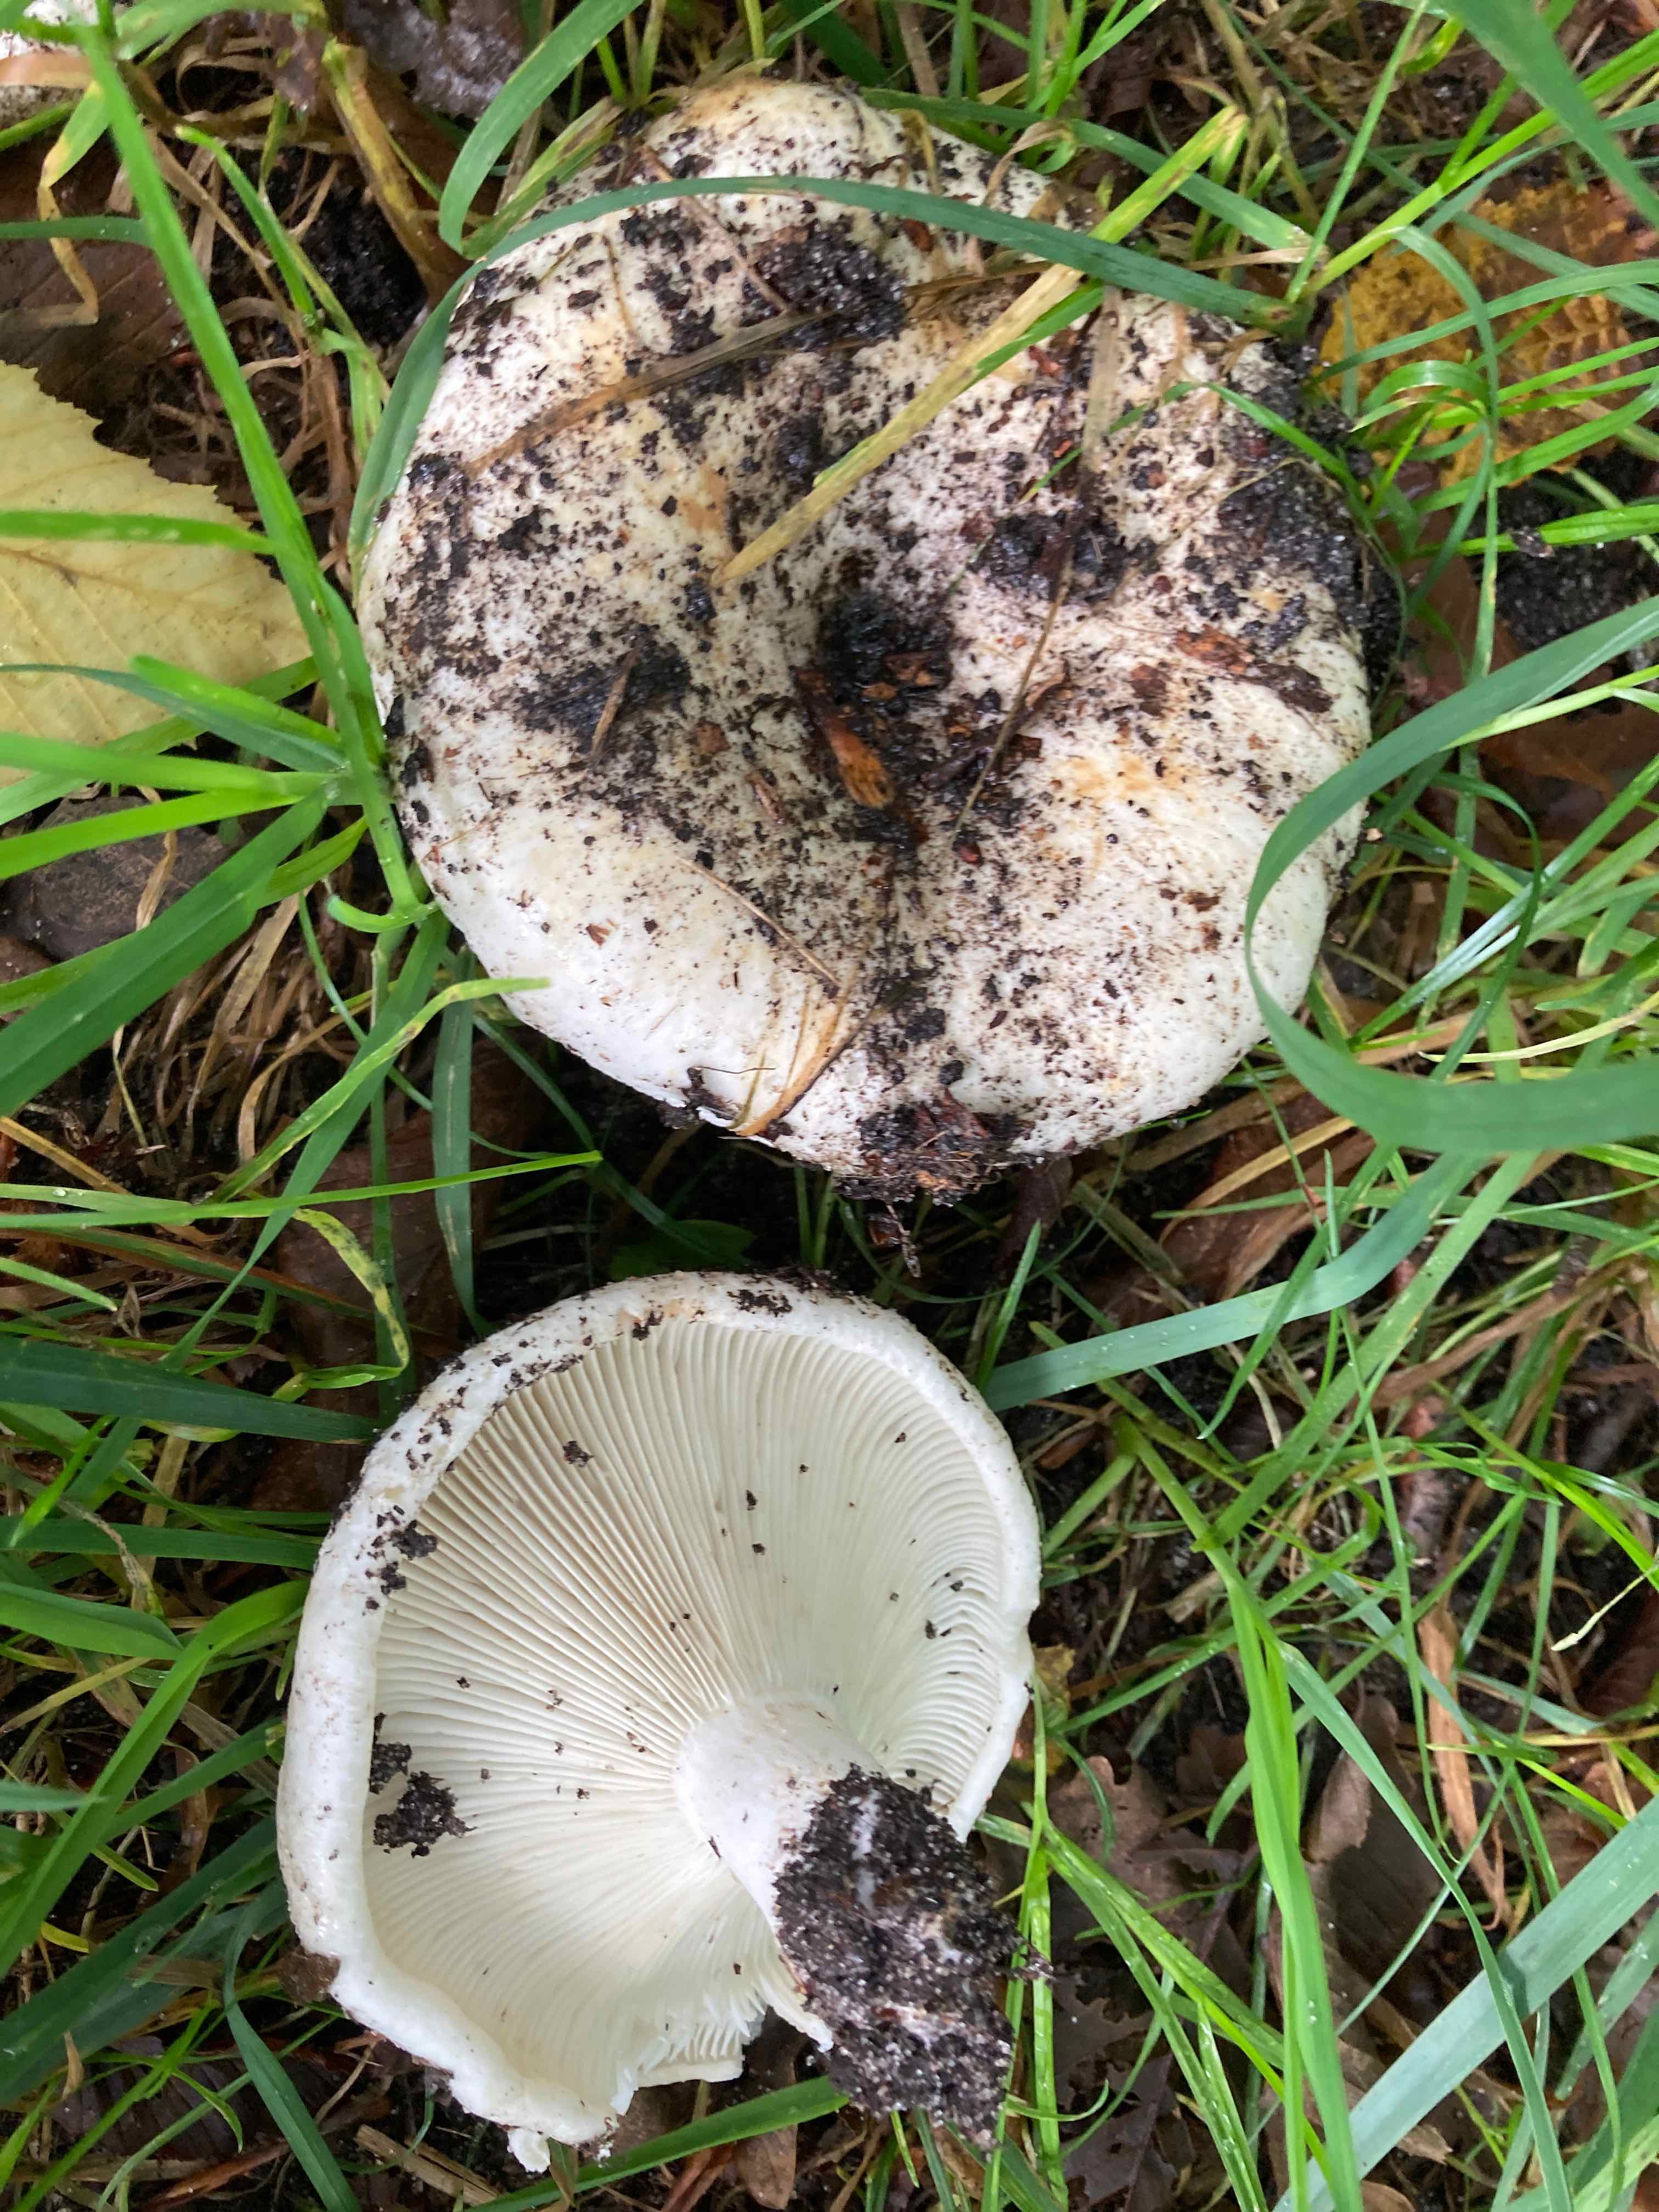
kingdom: Fungi
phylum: Basidiomycota
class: Agaricomycetes
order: Russulales
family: Russulaceae
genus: Russula
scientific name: Russula delica
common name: almindelig tragt-skørhat
